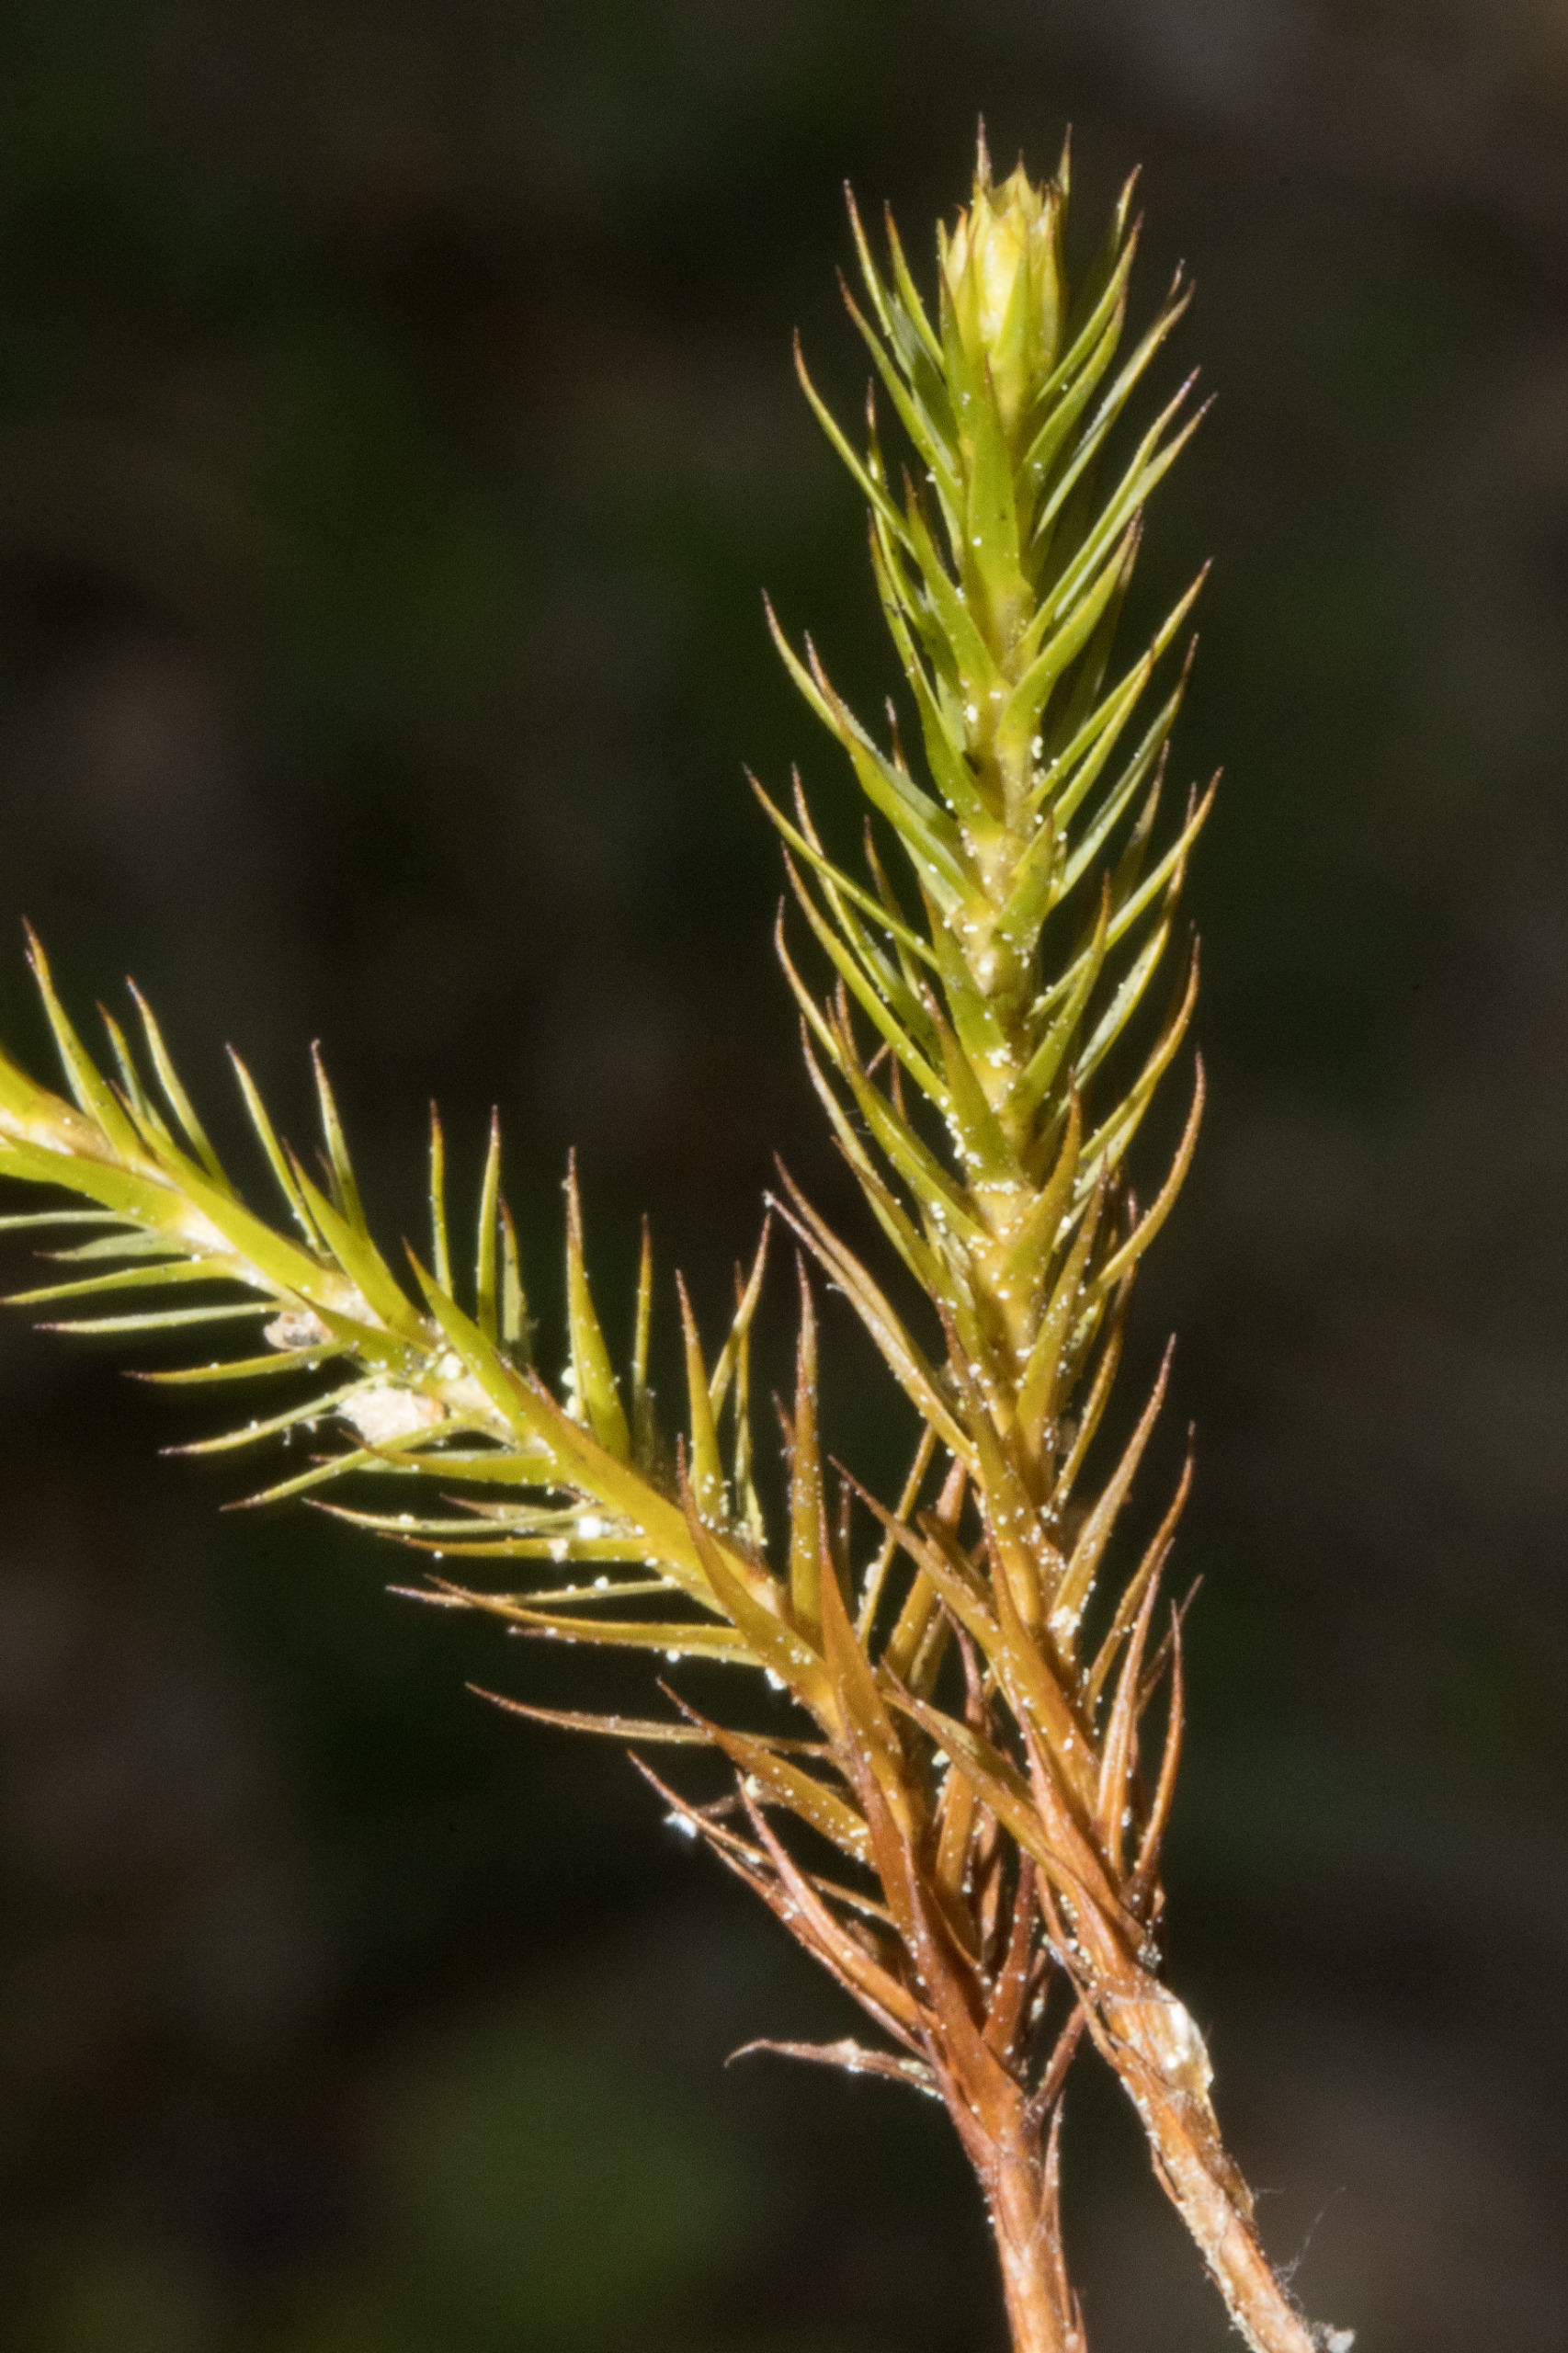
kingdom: Plantae
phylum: Bryophyta
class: Polytrichopsida
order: Polytrichales
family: Polytrichaceae
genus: Polytrichum
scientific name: Polytrichum formosum
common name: Skov-jomfruhår
